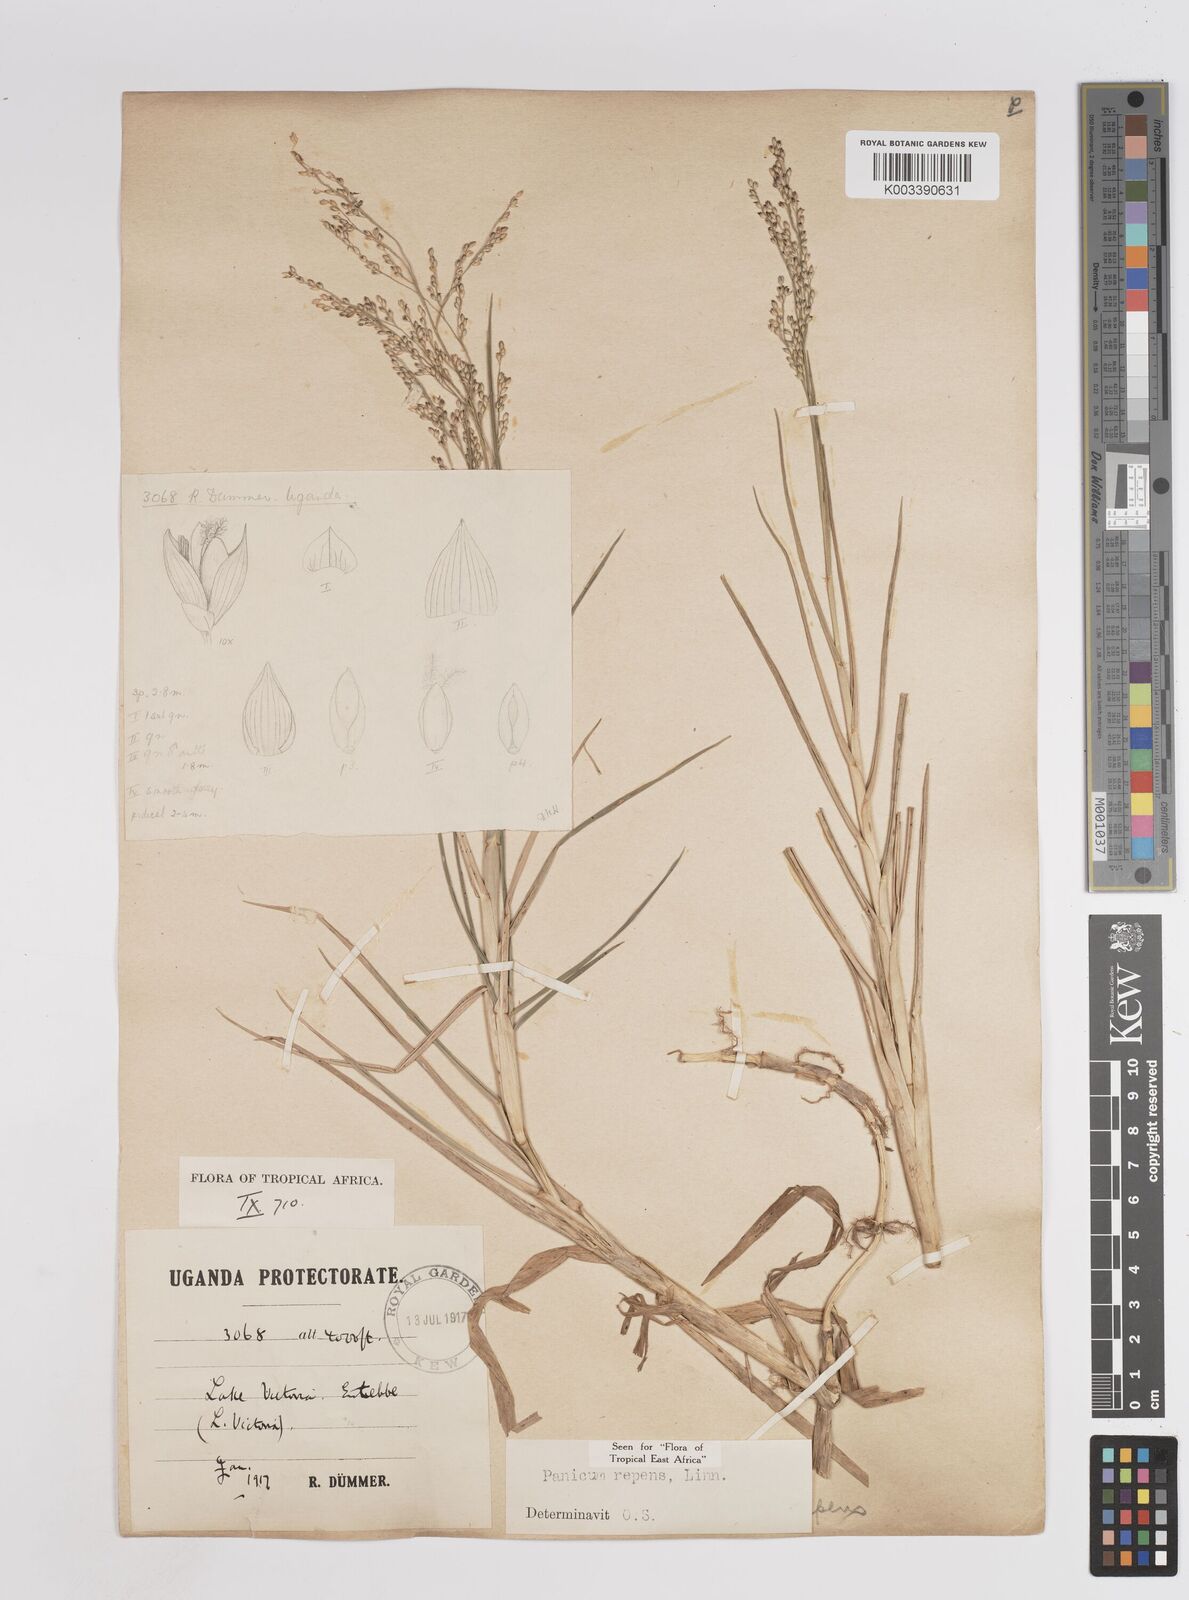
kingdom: Plantae
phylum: Tracheophyta
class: Liliopsida
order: Poales
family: Poaceae
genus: Panicum
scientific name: Panicum repens
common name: Torpedo grass
